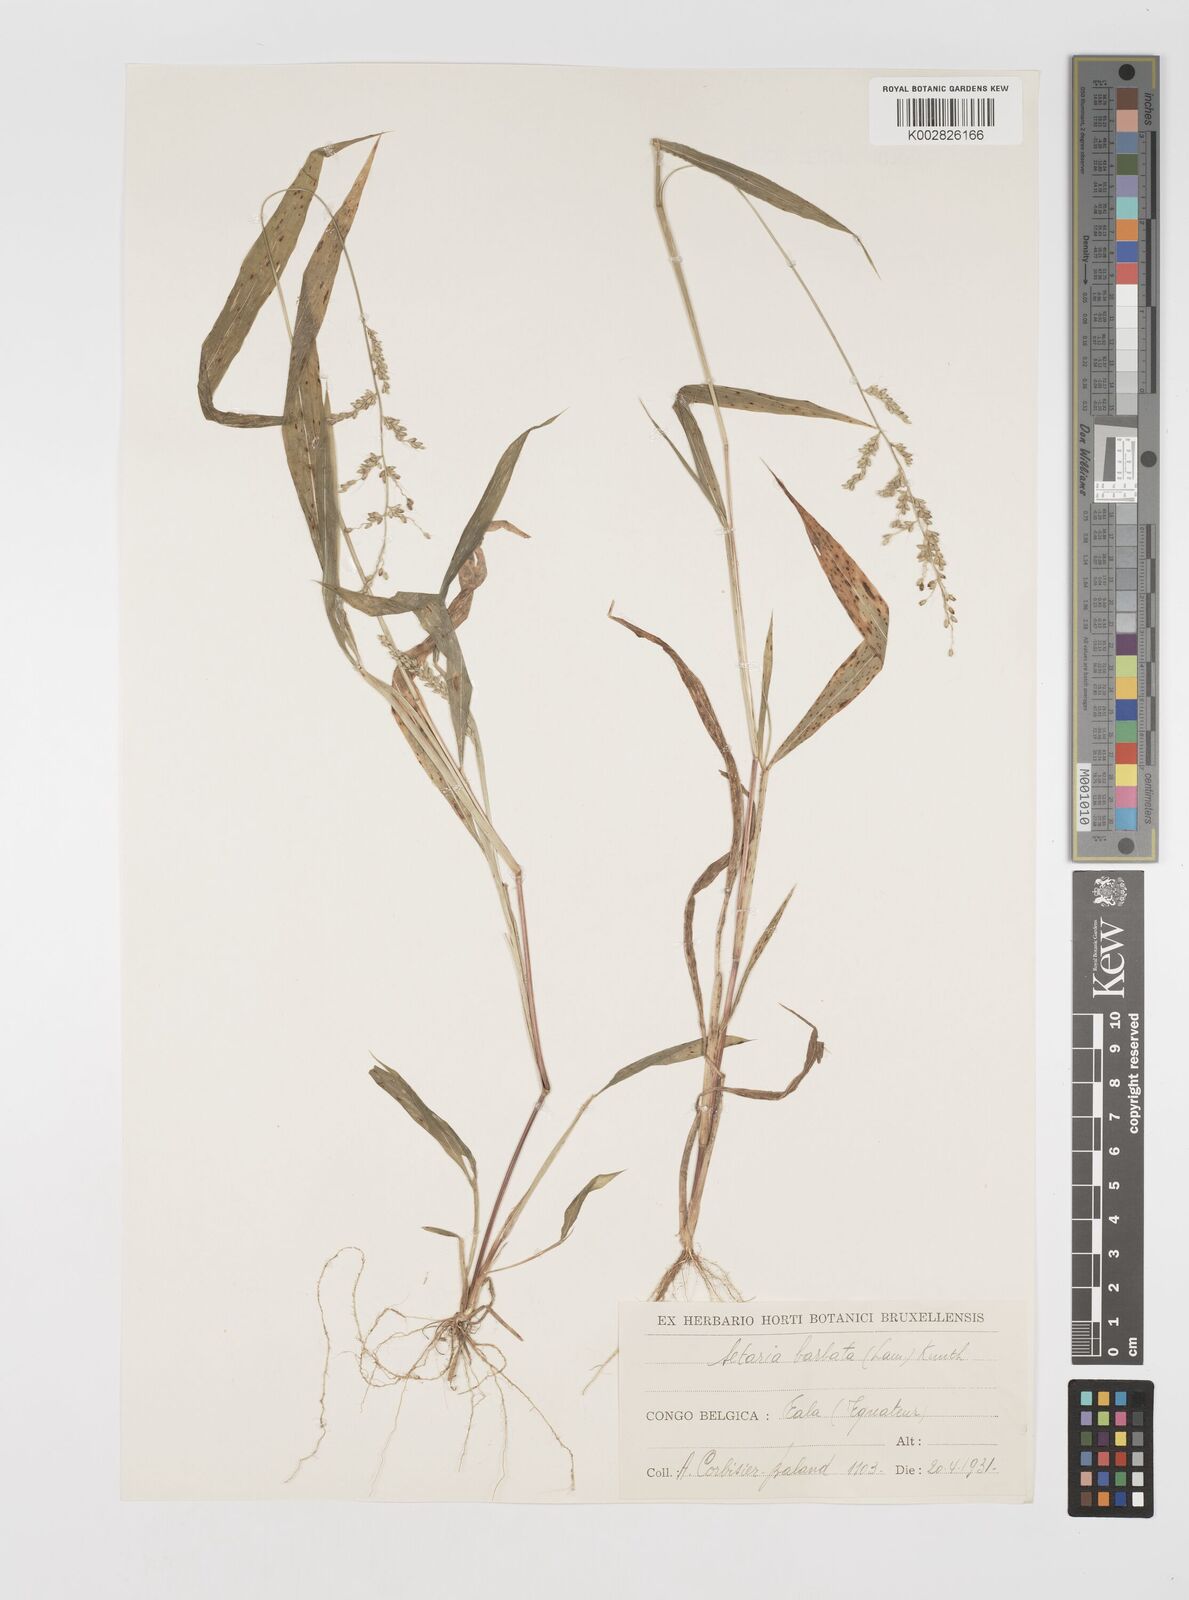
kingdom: Plantae
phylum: Tracheophyta
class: Liliopsida
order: Poales
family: Poaceae
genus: Setaria
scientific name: Setaria barbata
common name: East indian bristlegrass
